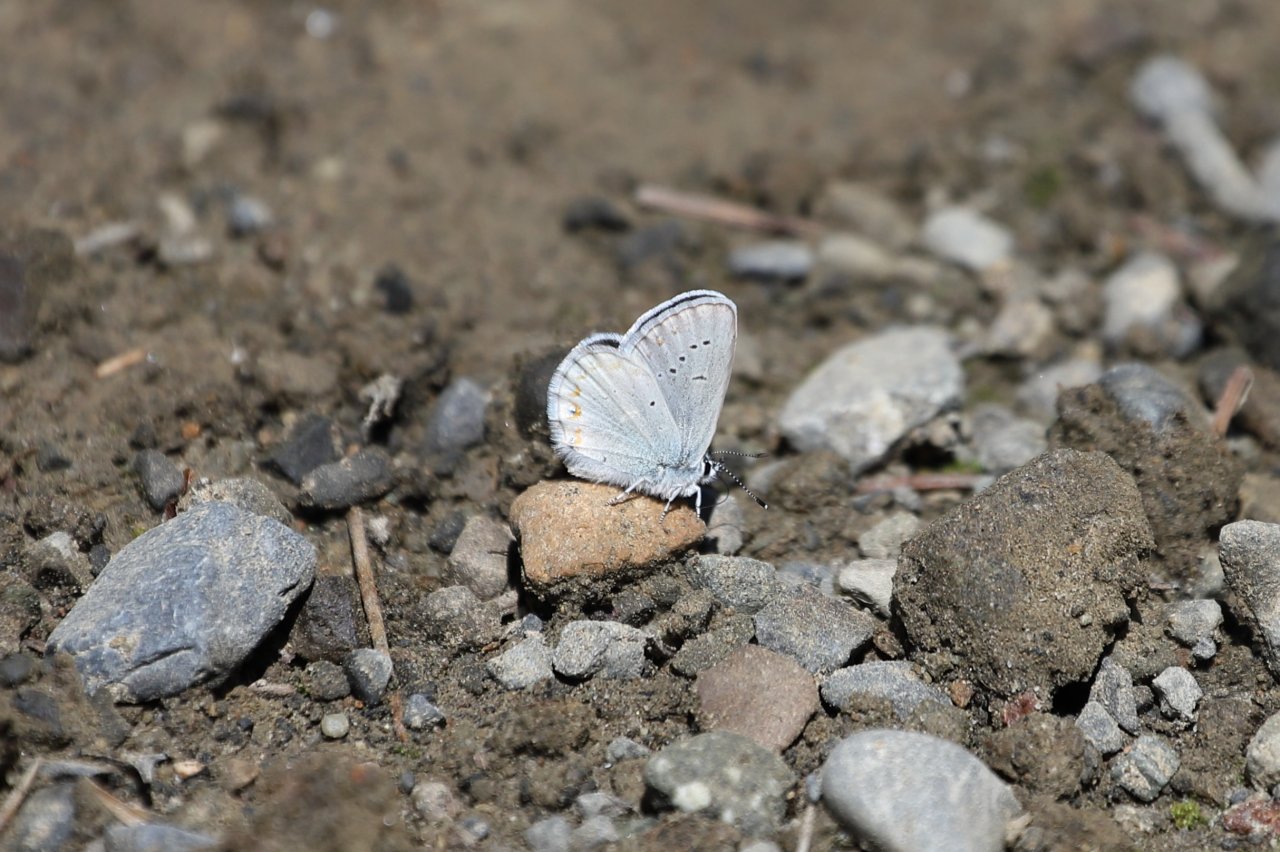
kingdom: Animalia
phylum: Arthropoda
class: Insecta
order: Lepidoptera
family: Lycaenidae
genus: Lycaeides
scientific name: Lycaeides anna
